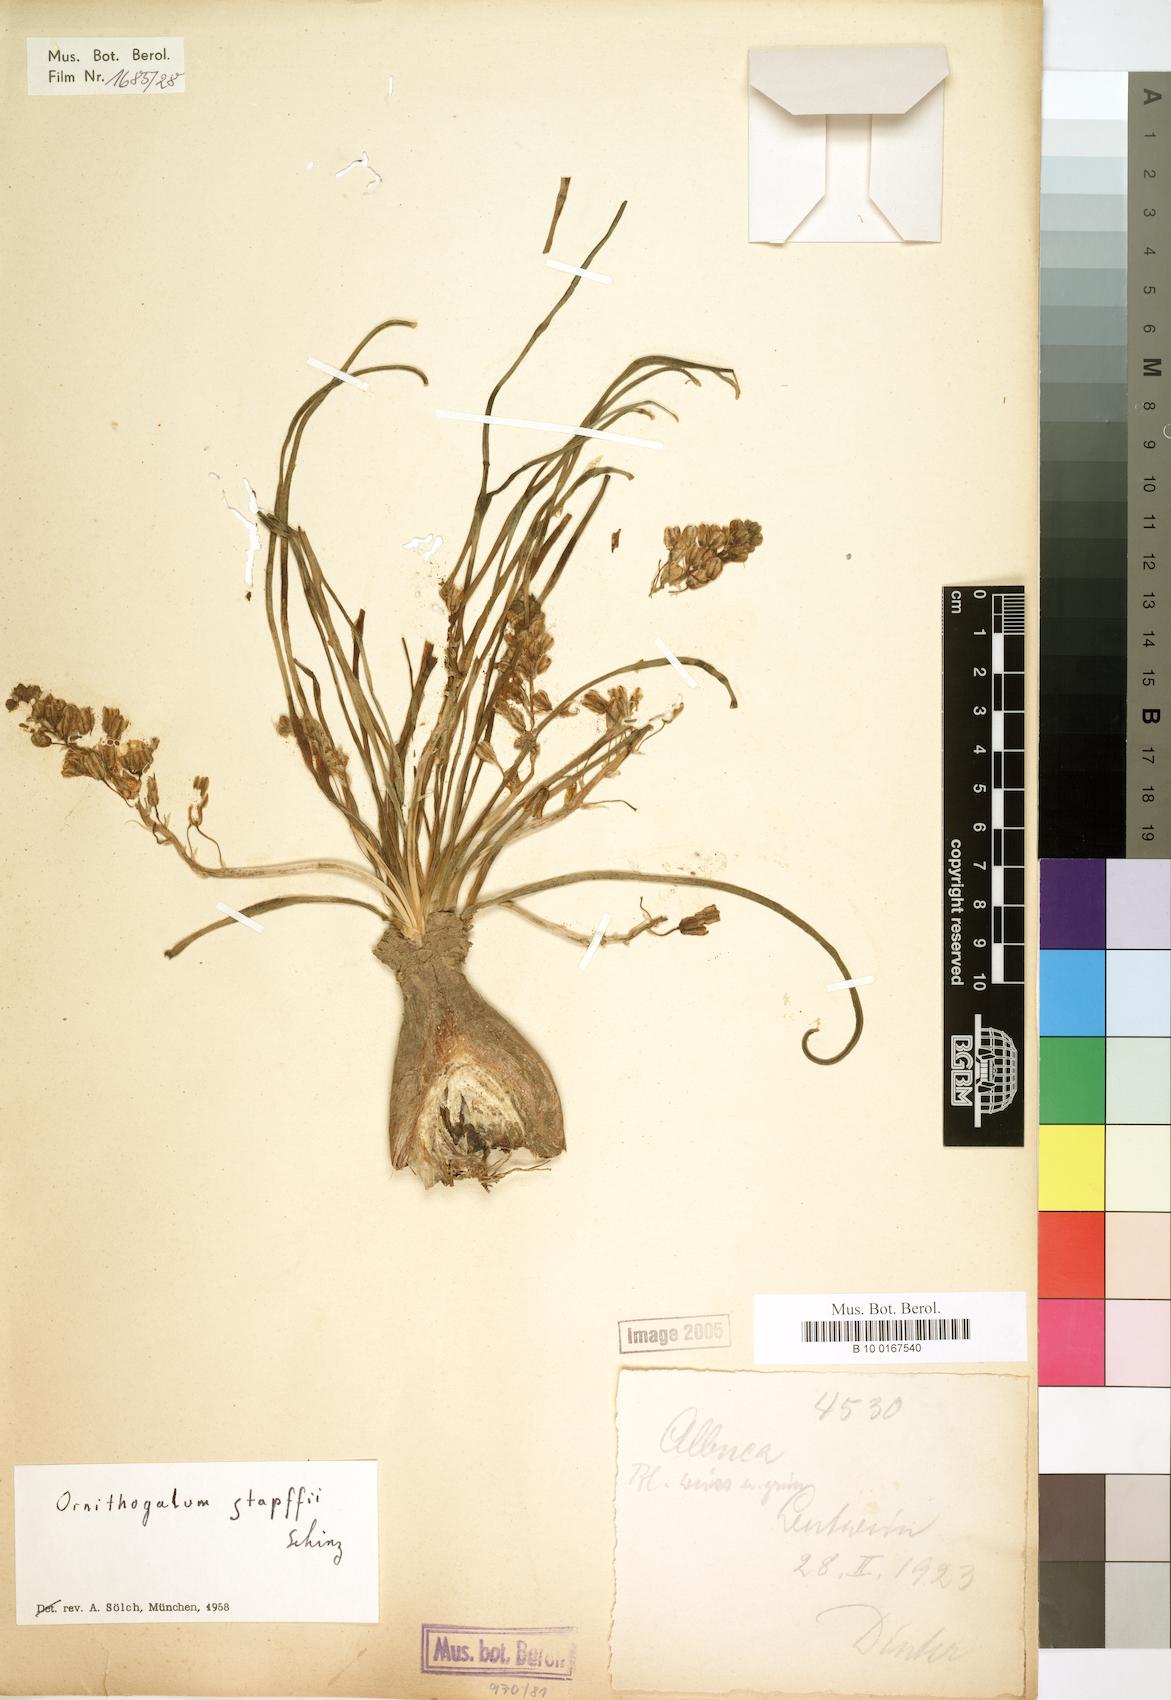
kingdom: Plantae
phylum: Tracheophyta
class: Liliopsida
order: Asparagales
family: Asparagaceae
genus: Albuca
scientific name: Albuca stapffii
